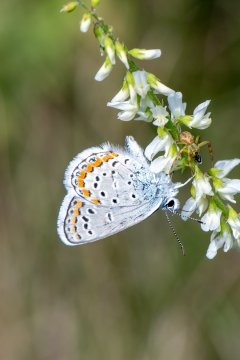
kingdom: Animalia
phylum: Arthropoda
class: Insecta
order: Lepidoptera
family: Lycaenidae
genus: Lycaeides
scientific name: Lycaeides melissa
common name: Melissa Blue
